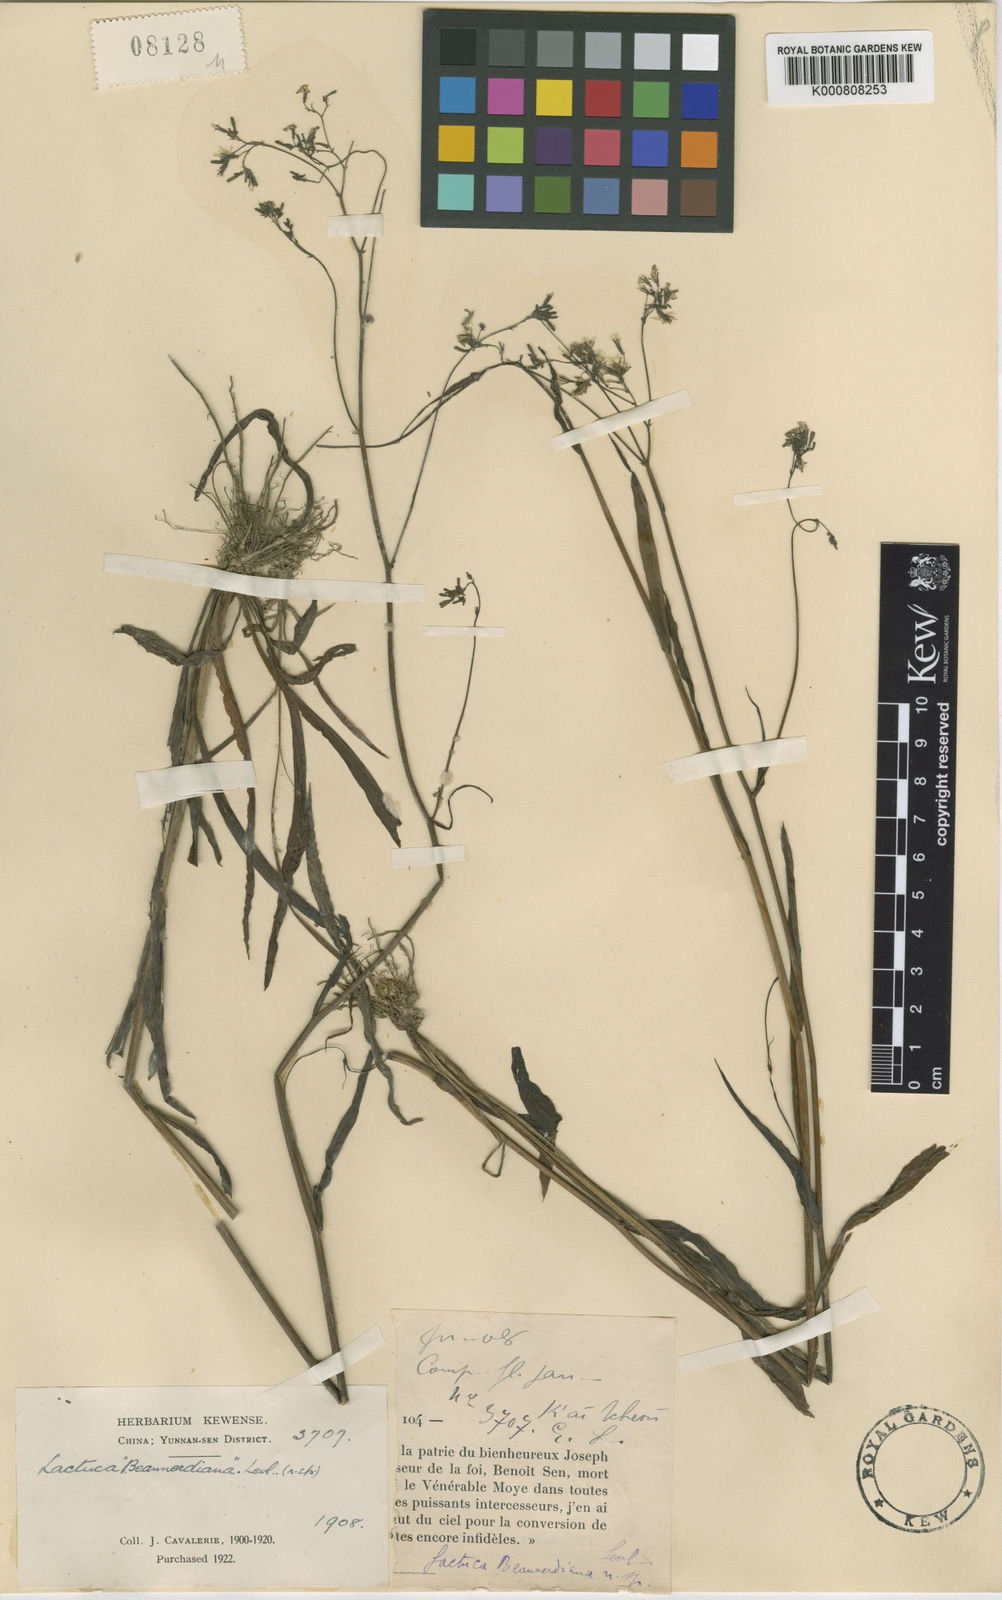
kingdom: Plantae
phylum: Tracheophyta
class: Magnoliopsida
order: Asterales
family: Asteraceae
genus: Ixeridium
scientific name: Ixeridium gracile
